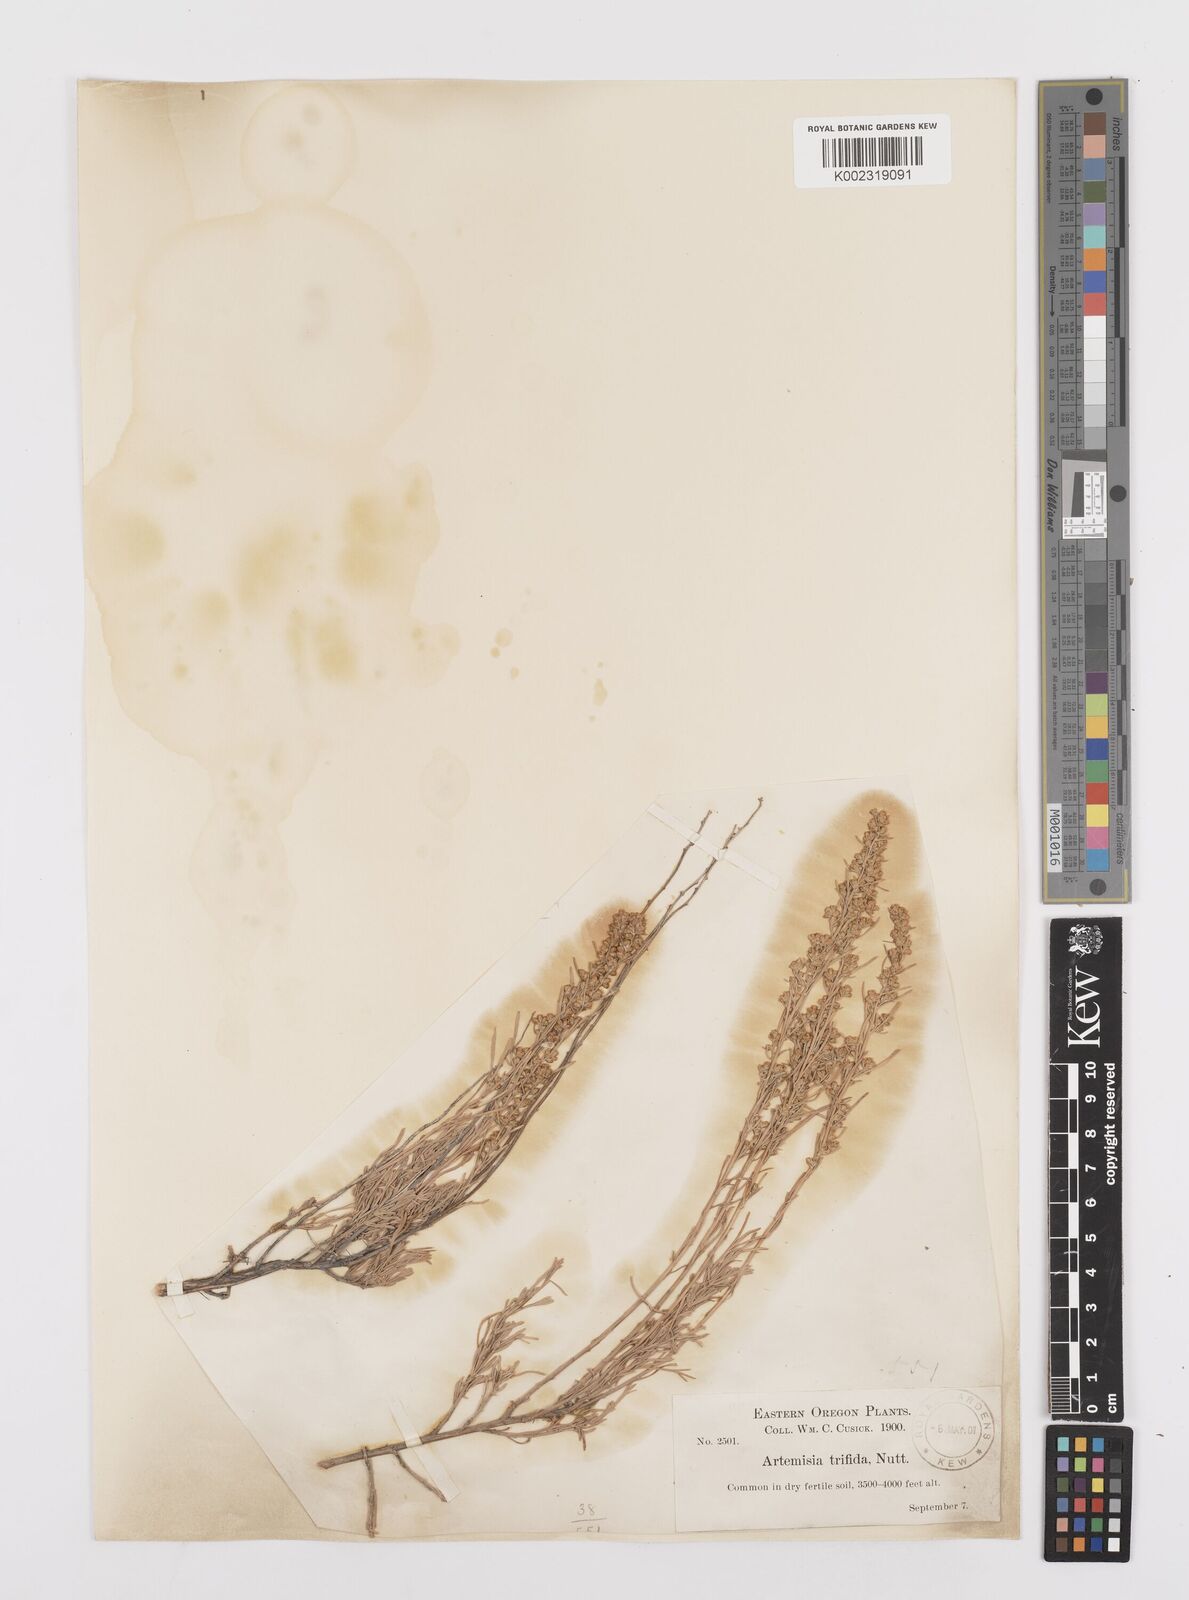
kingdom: Plantae
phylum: Tracheophyta
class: Magnoliopsida
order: Asterales
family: Asteraceae
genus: Artemisia
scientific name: Artemisia rigida
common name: Scabland sagebrush
